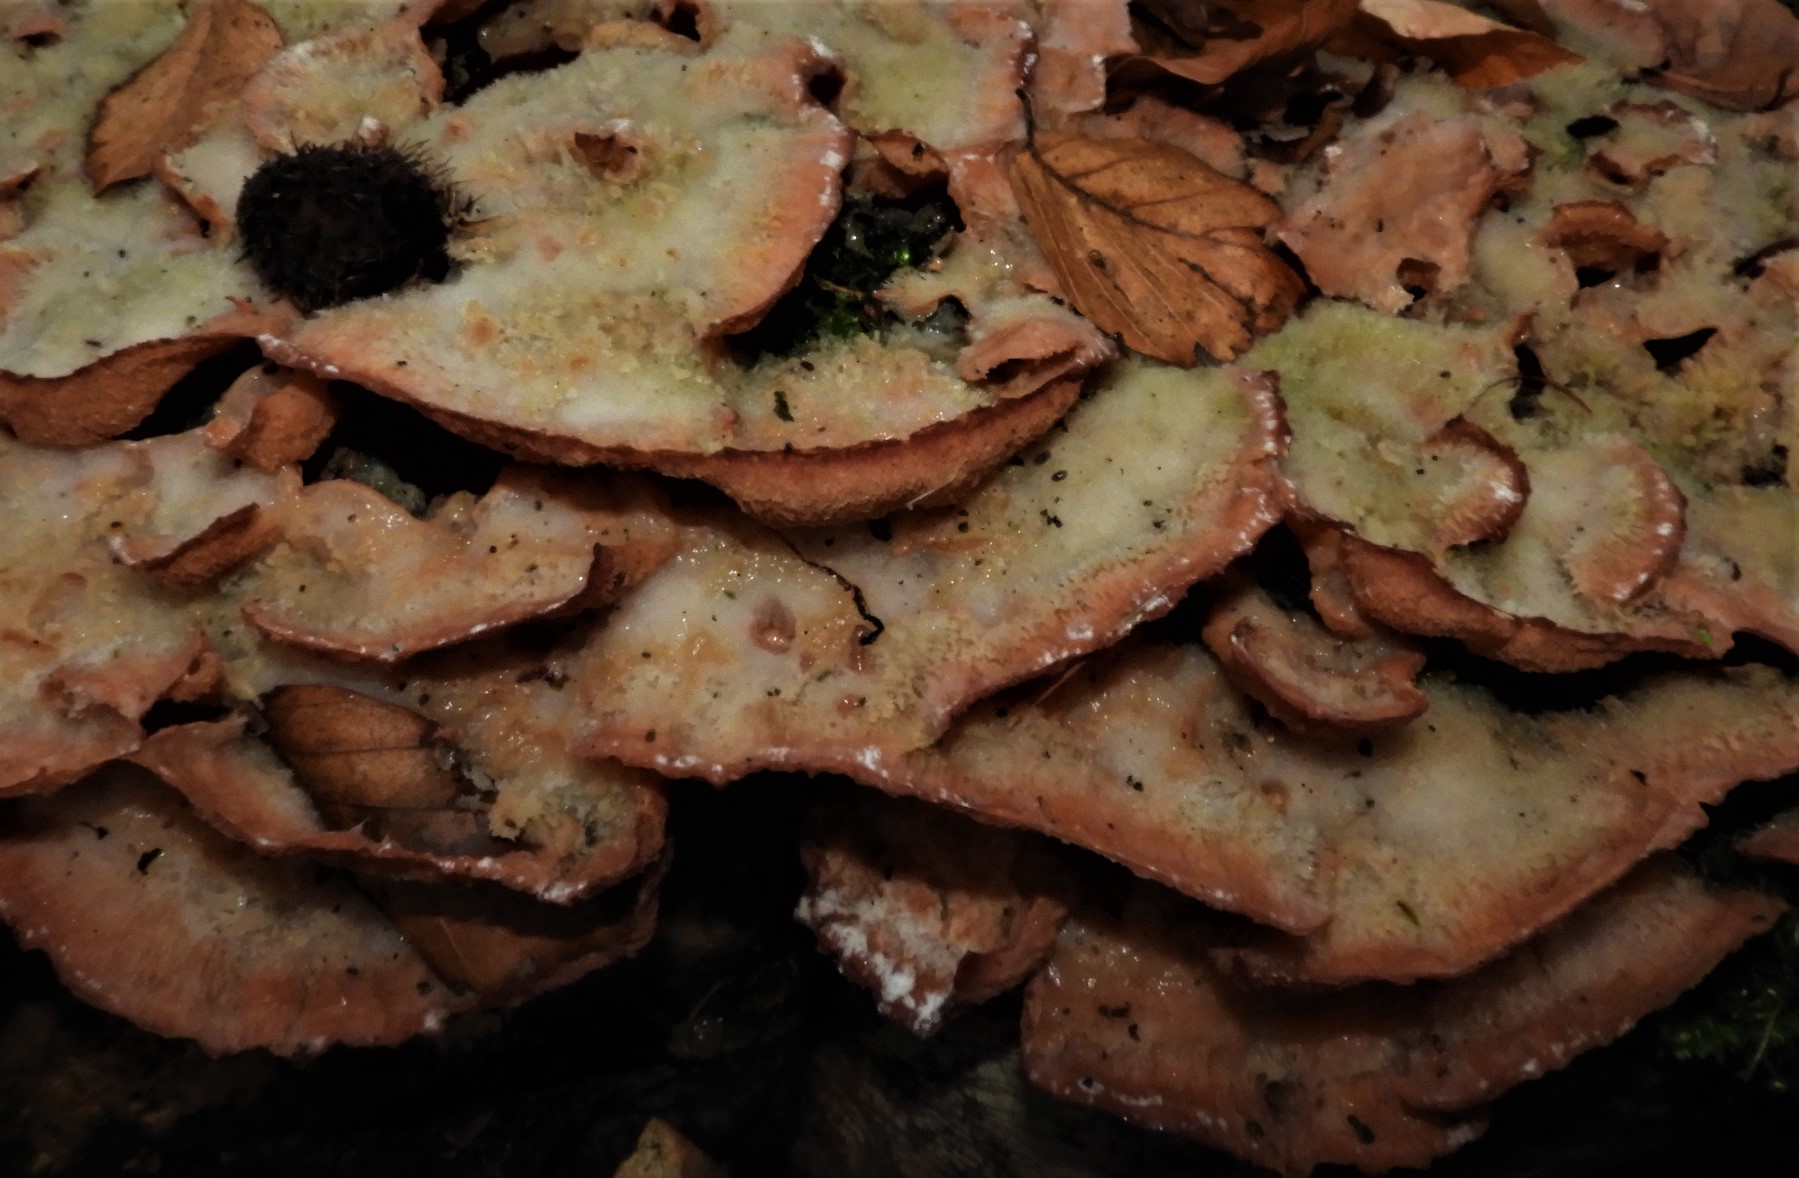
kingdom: Fungi
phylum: Basidiomycota
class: Agaricomycetes
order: Polyporales
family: Meruliaceae
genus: Phlebia
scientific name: Phlebia tremellosa
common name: bævrende åresvamp
